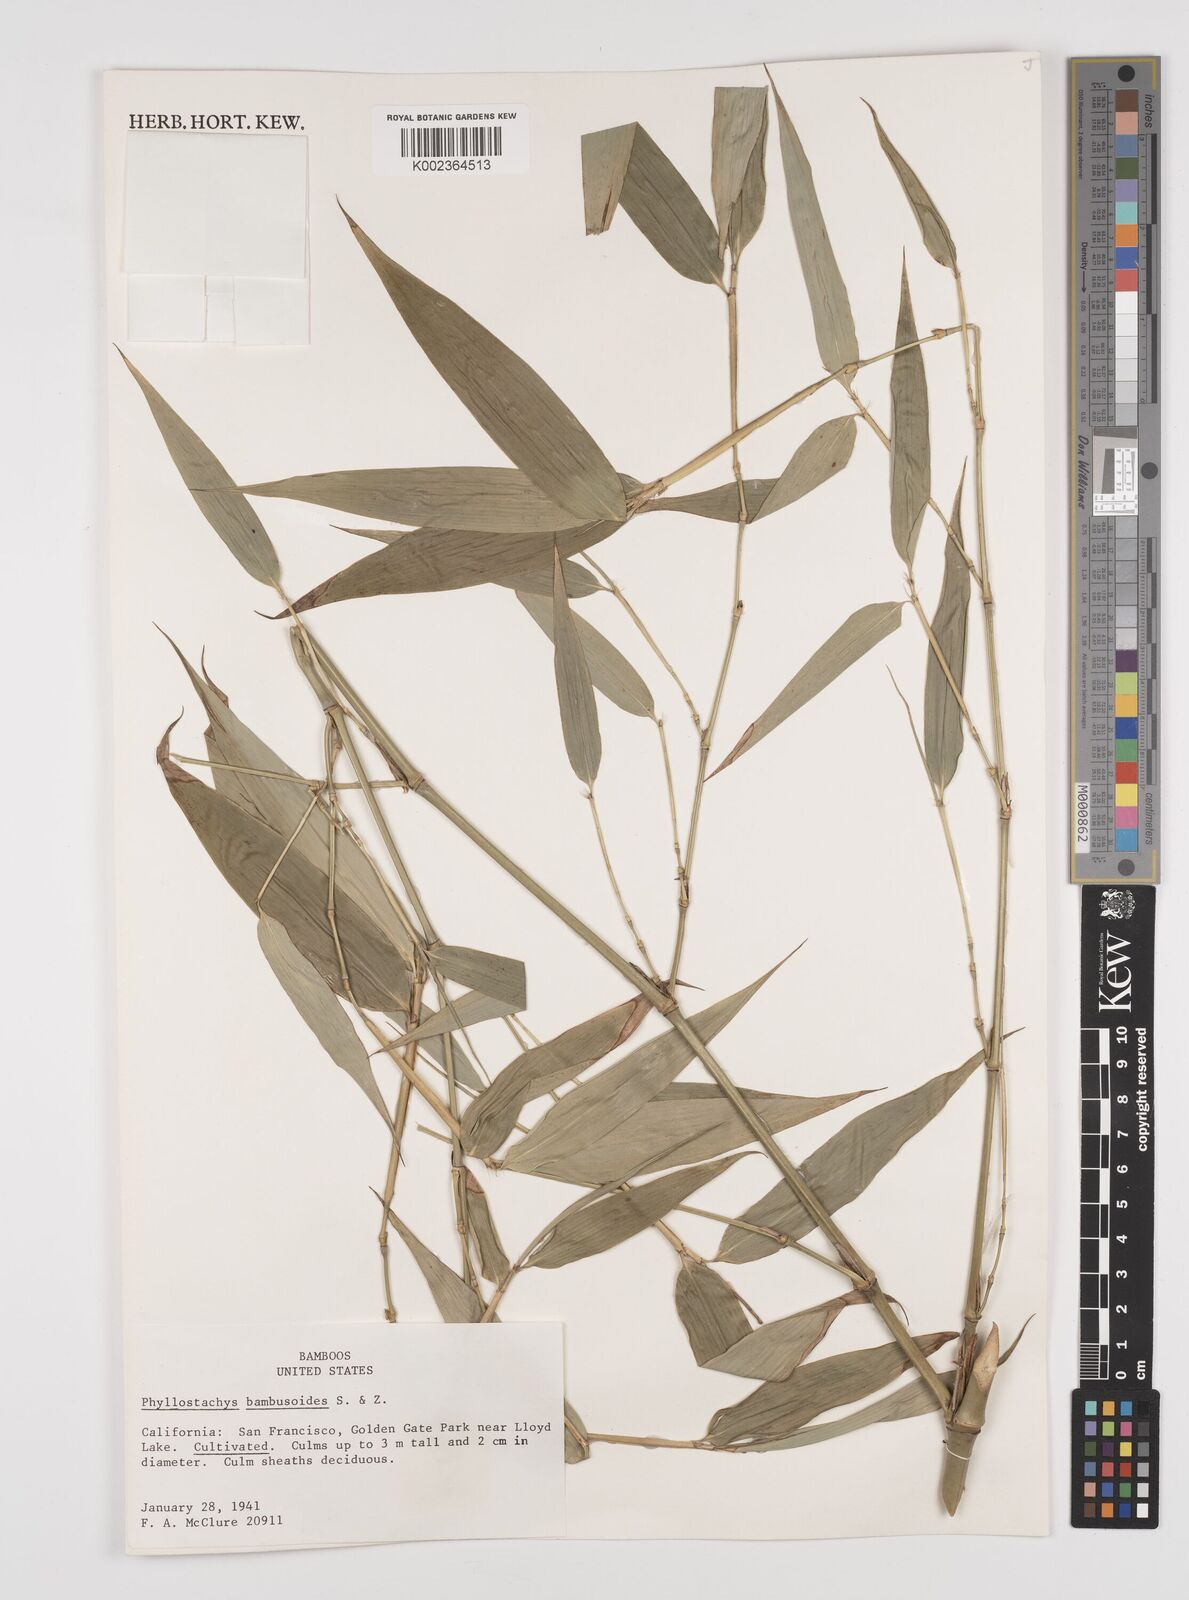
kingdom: Plantae
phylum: Tracheophyta
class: Liliopsida
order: Poales
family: Poaceae
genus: Phyllostachys
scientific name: Phyllostachys reticulata
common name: Bamboo
